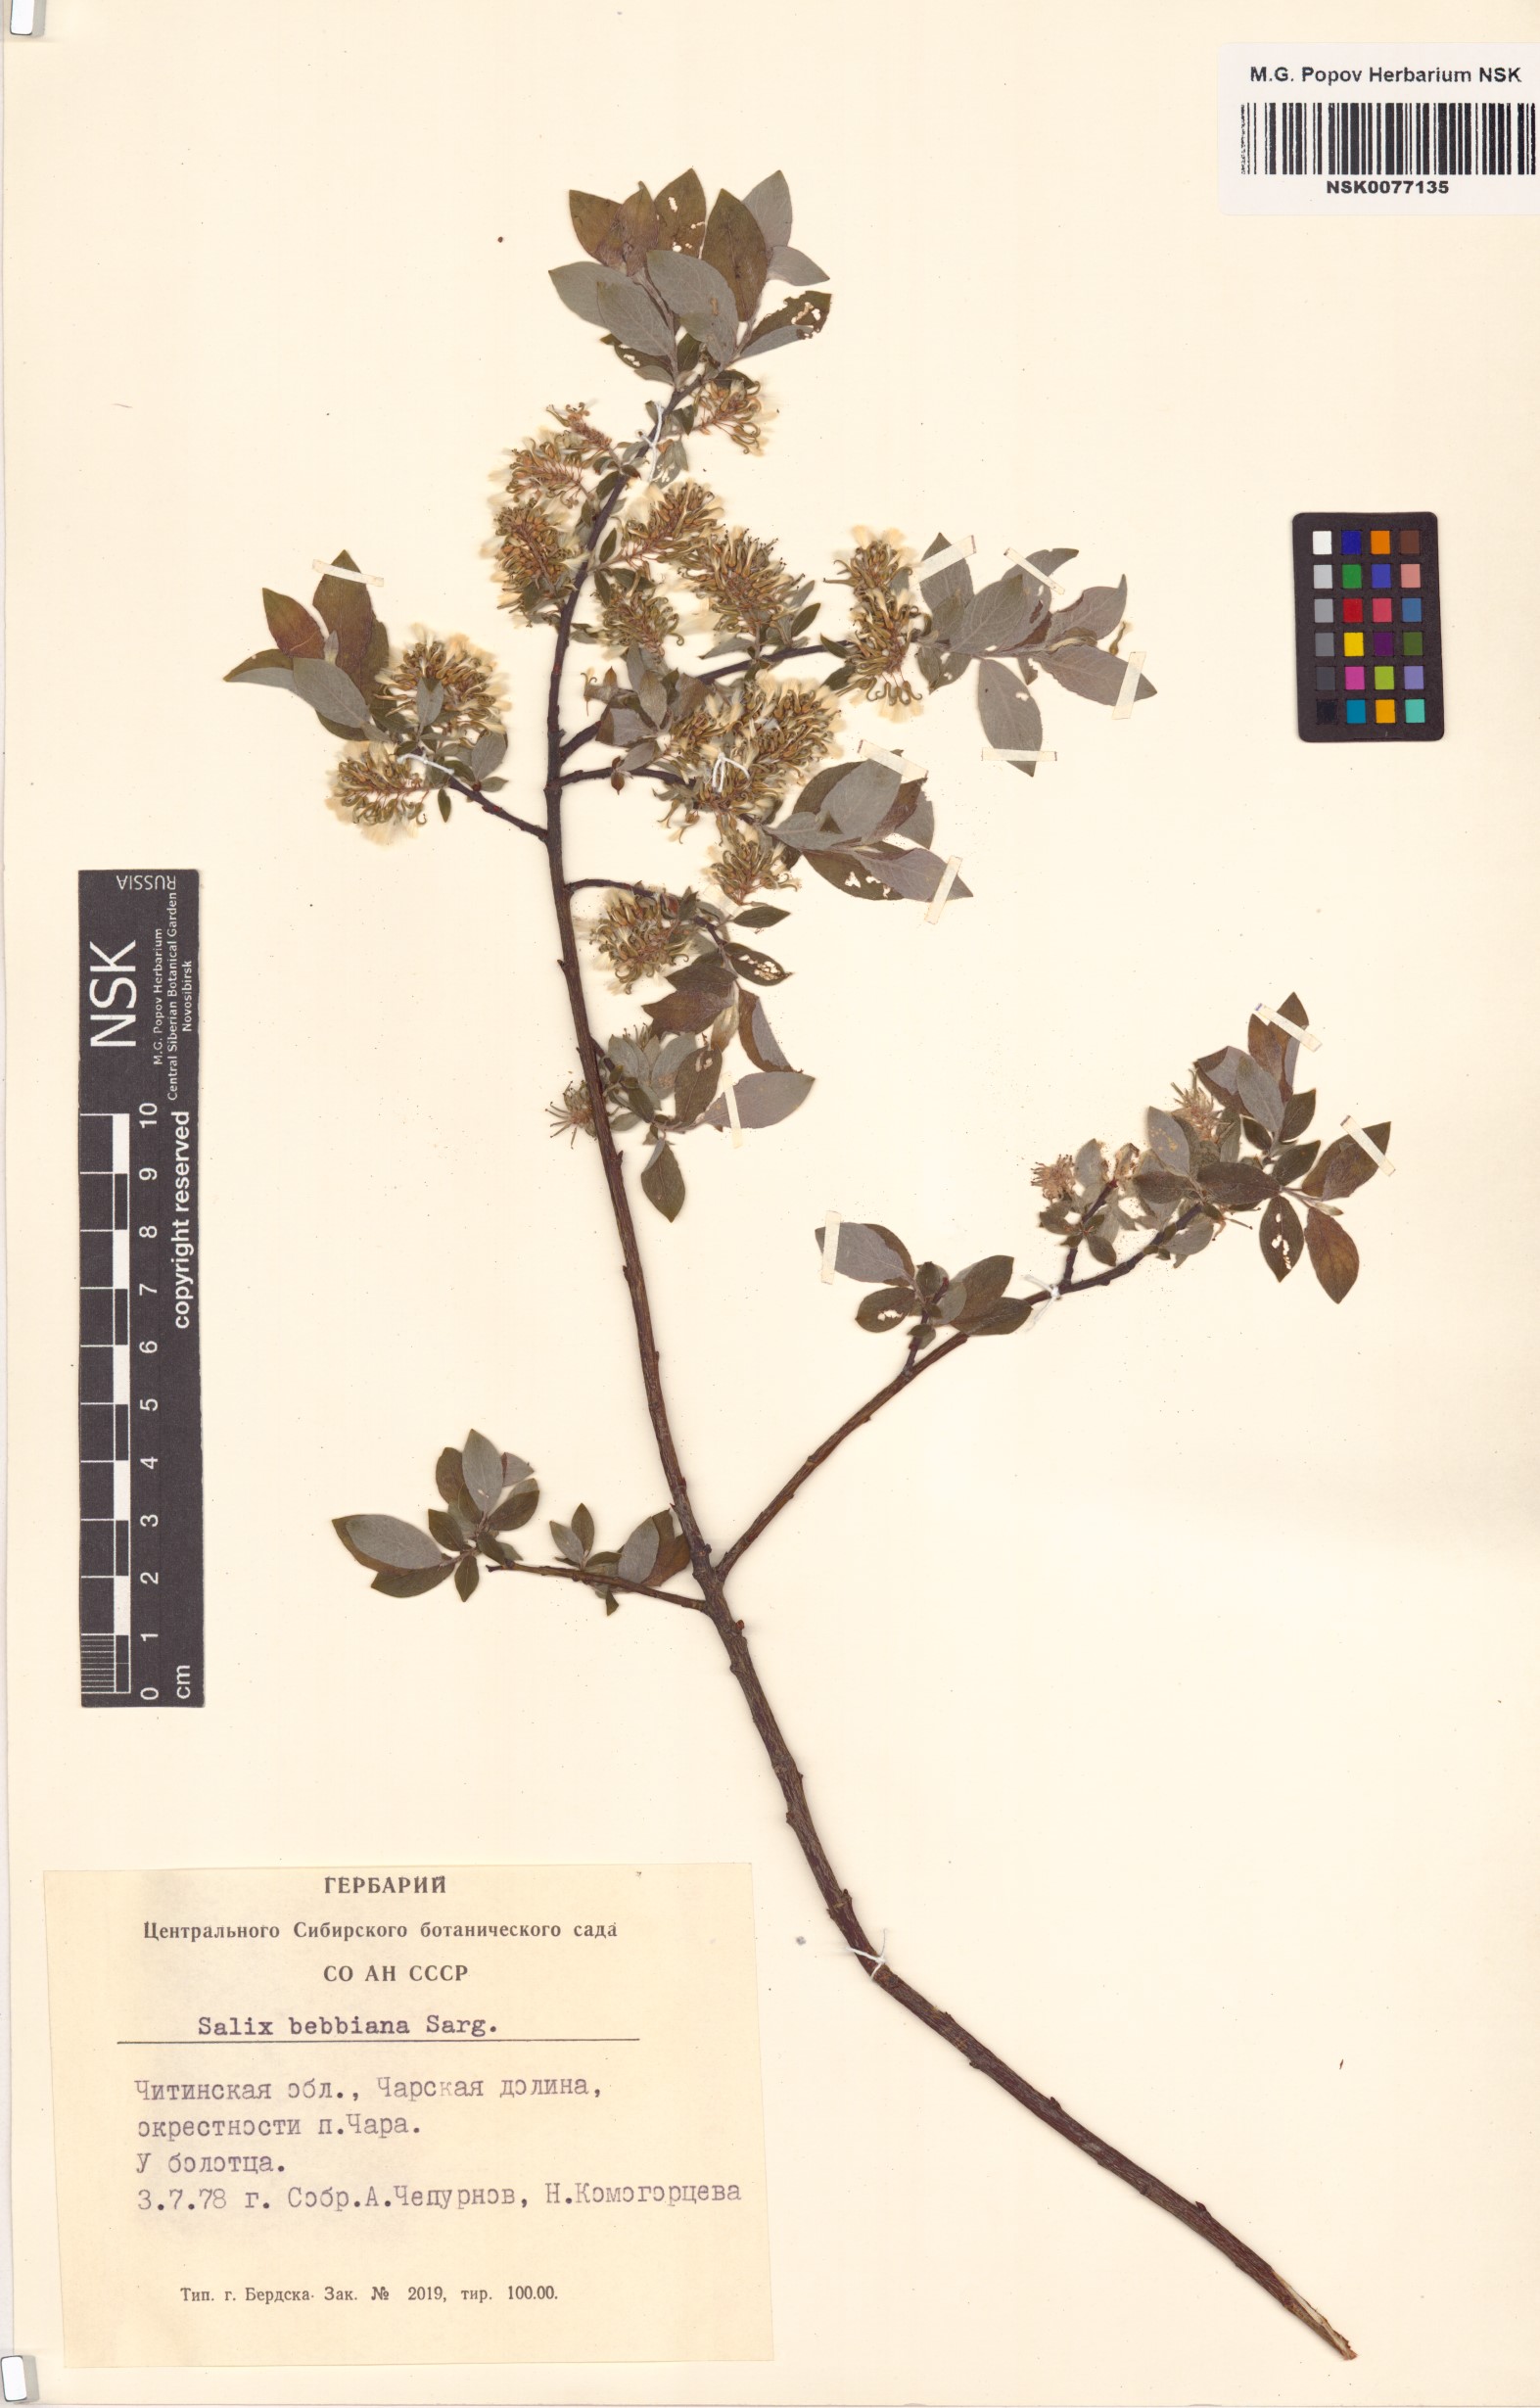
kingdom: Plantae
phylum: Tracheophyta
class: Magnoliopsida
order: Malpighiales
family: Salicaceae
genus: Salix
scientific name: Salix bebbiana
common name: Bebb's willow
